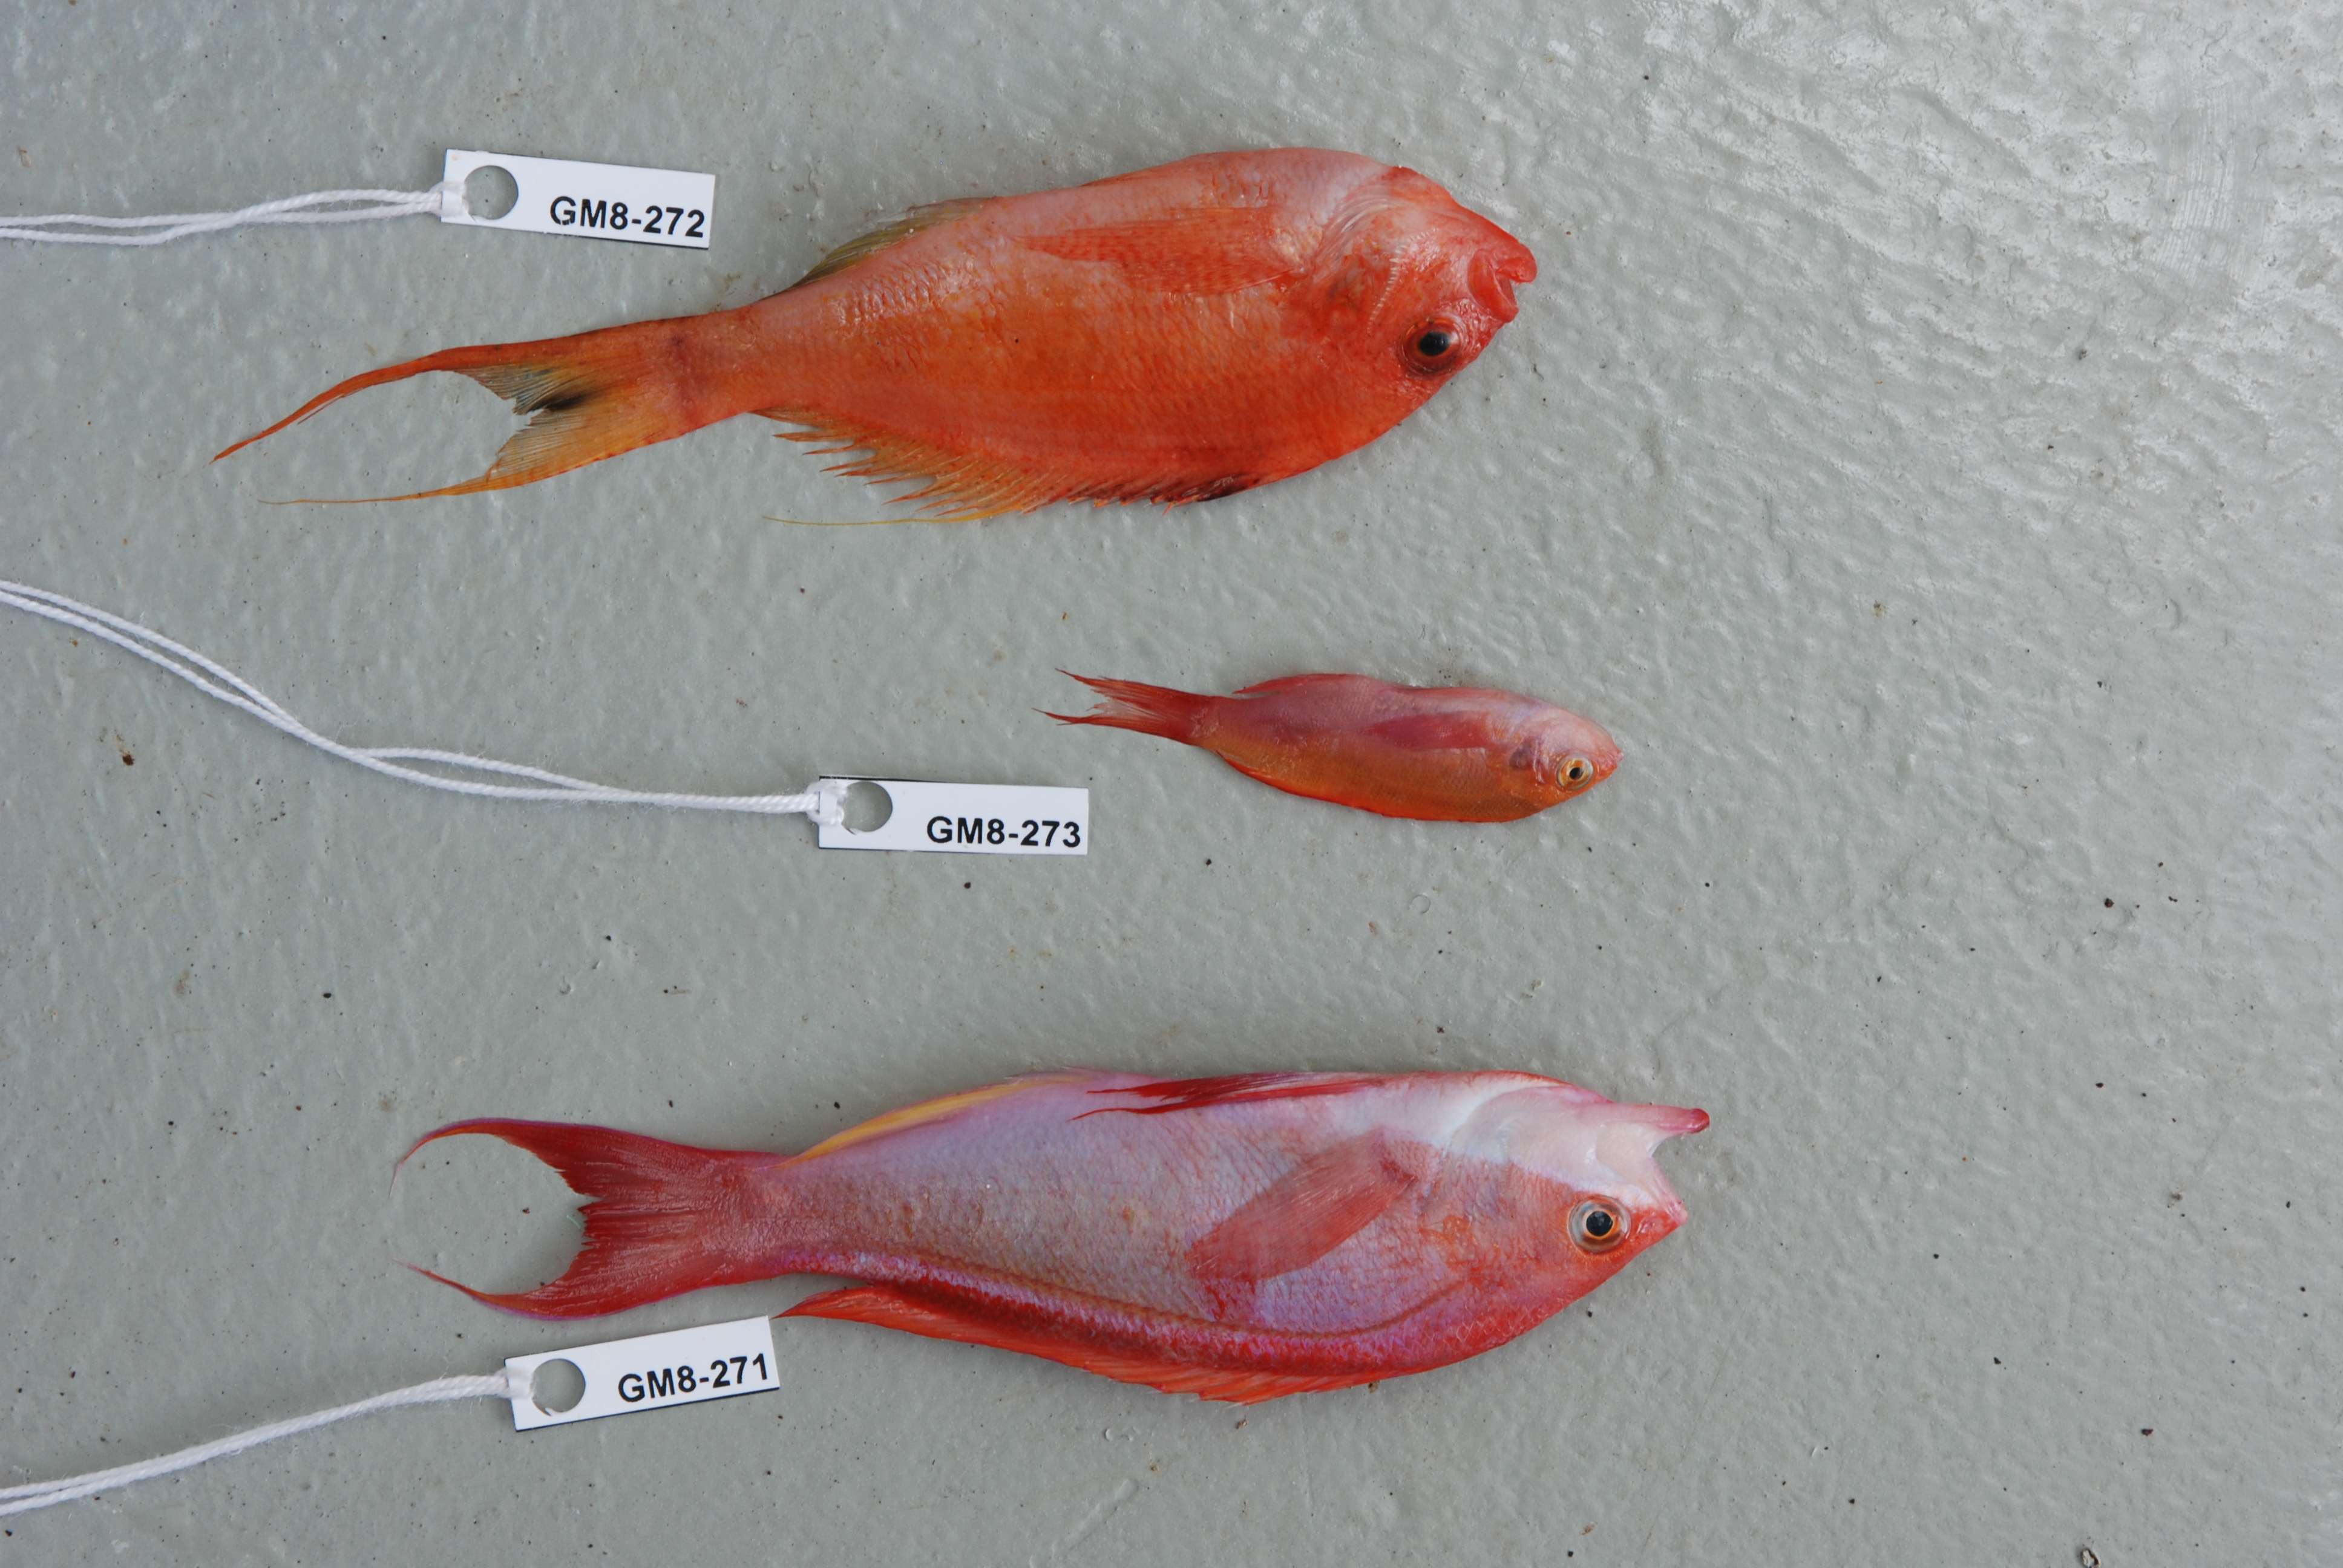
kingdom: Animalia
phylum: Chordata
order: Perciformes
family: Cirrhitidae
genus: Cyprinocirrhites
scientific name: Cyprinocirrhites polyactis
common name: Swallowtail hawkfish
